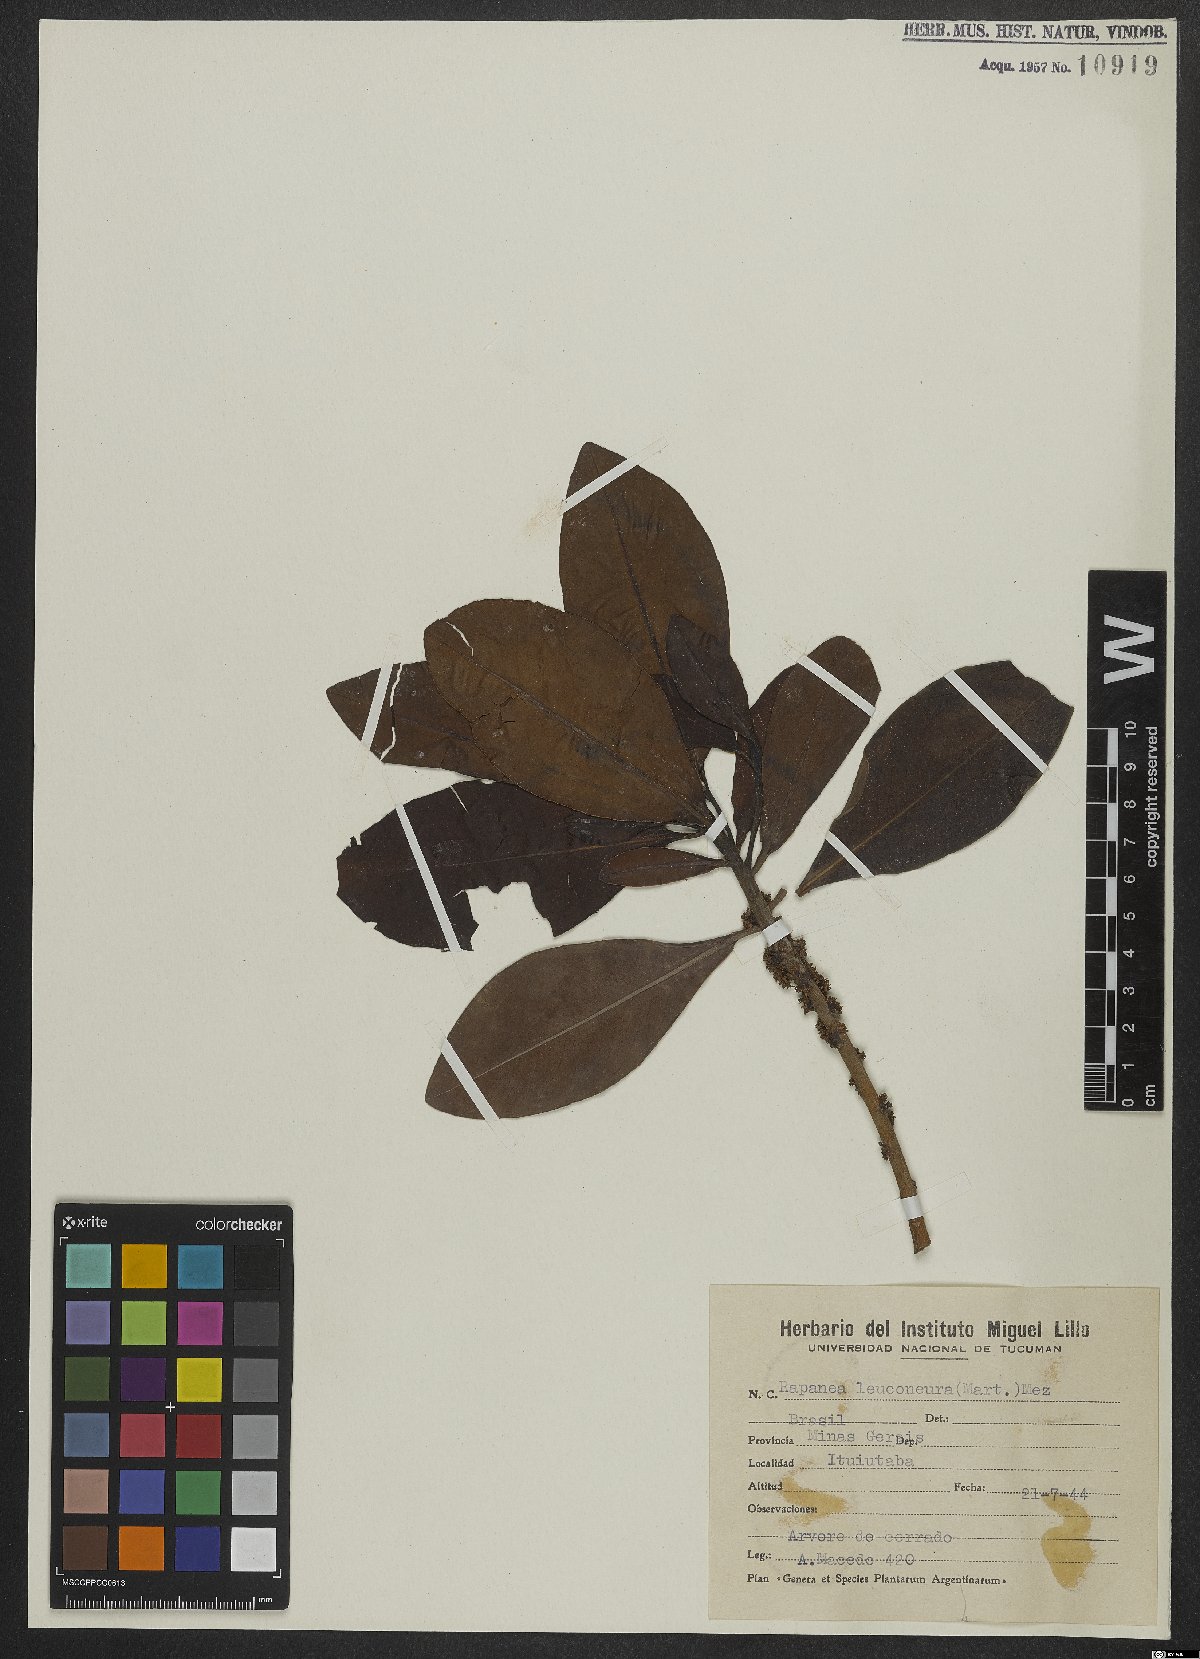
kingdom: Plantae
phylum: Tracheophyta
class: Magnoliopsida
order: Ericales
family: Primulaceae
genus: Myrsine
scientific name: Myrsine leuconeura
